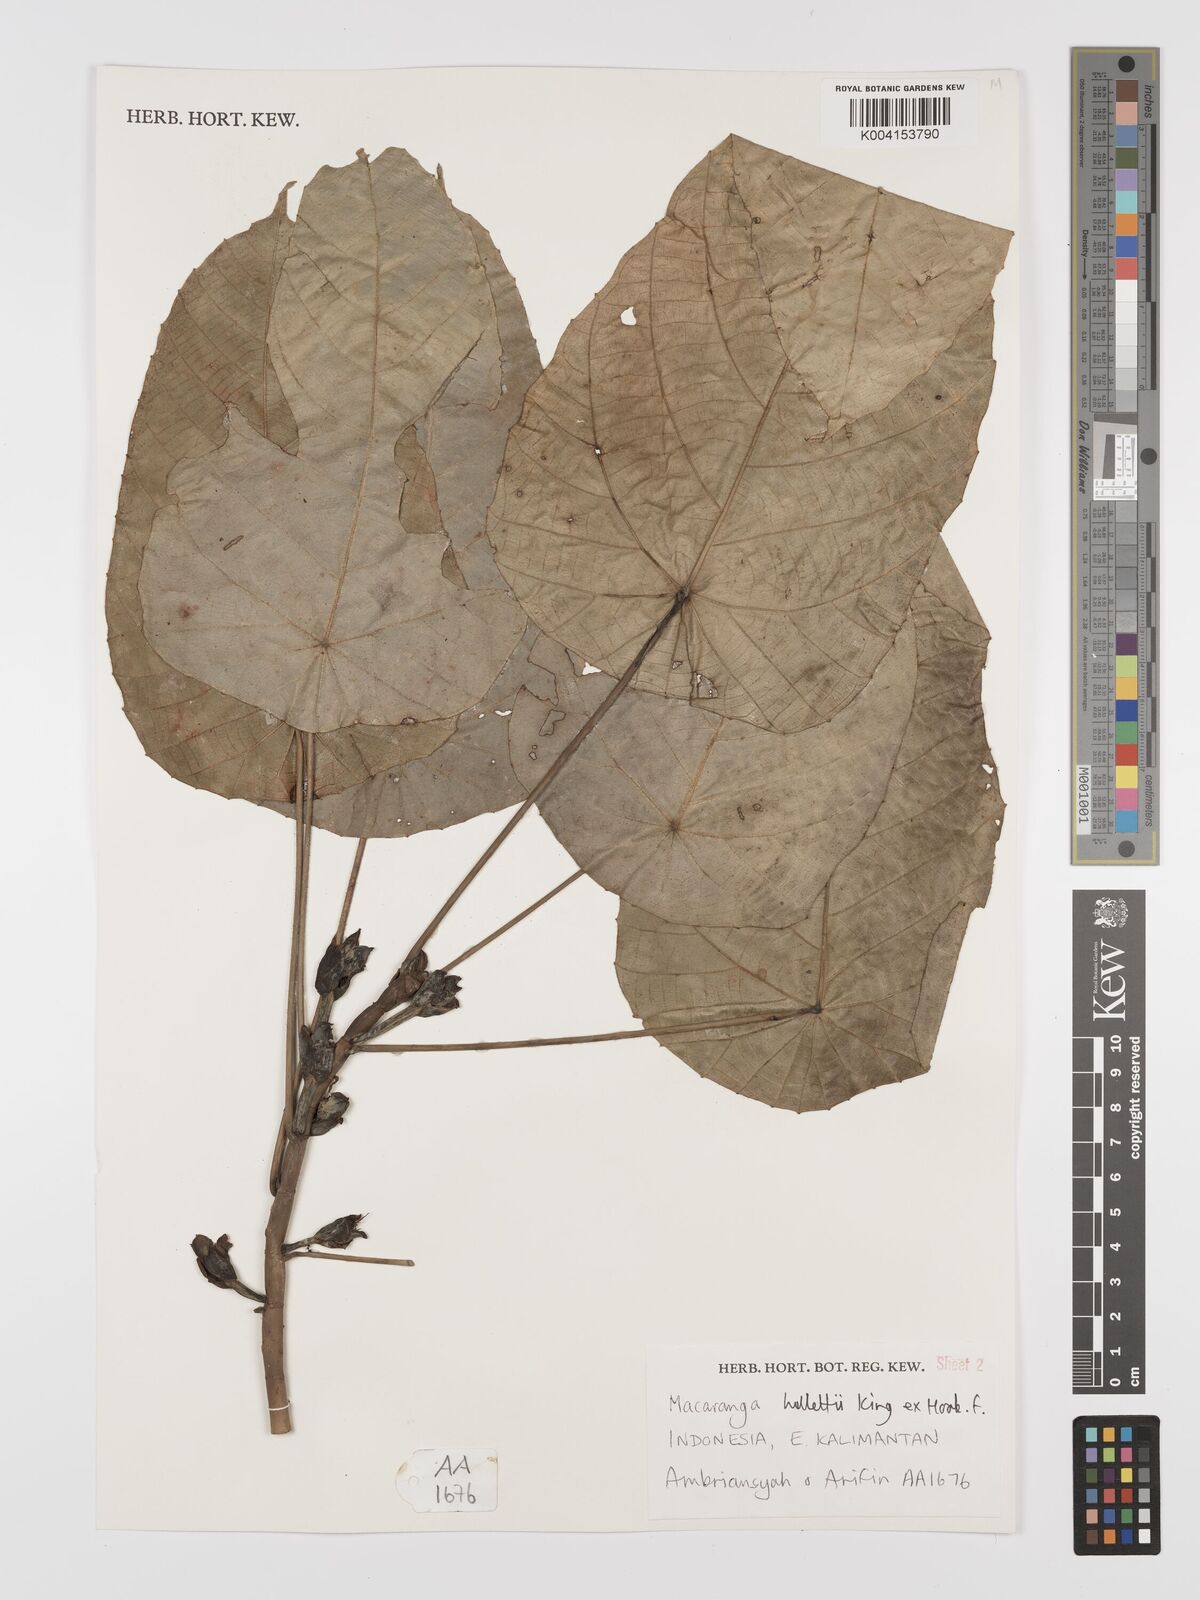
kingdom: Plantae
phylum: Tracheophyta
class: Magnoliopsida
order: Malpighiales
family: Euphorbiaceae
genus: Macaranga
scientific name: Macaranga hullettii
